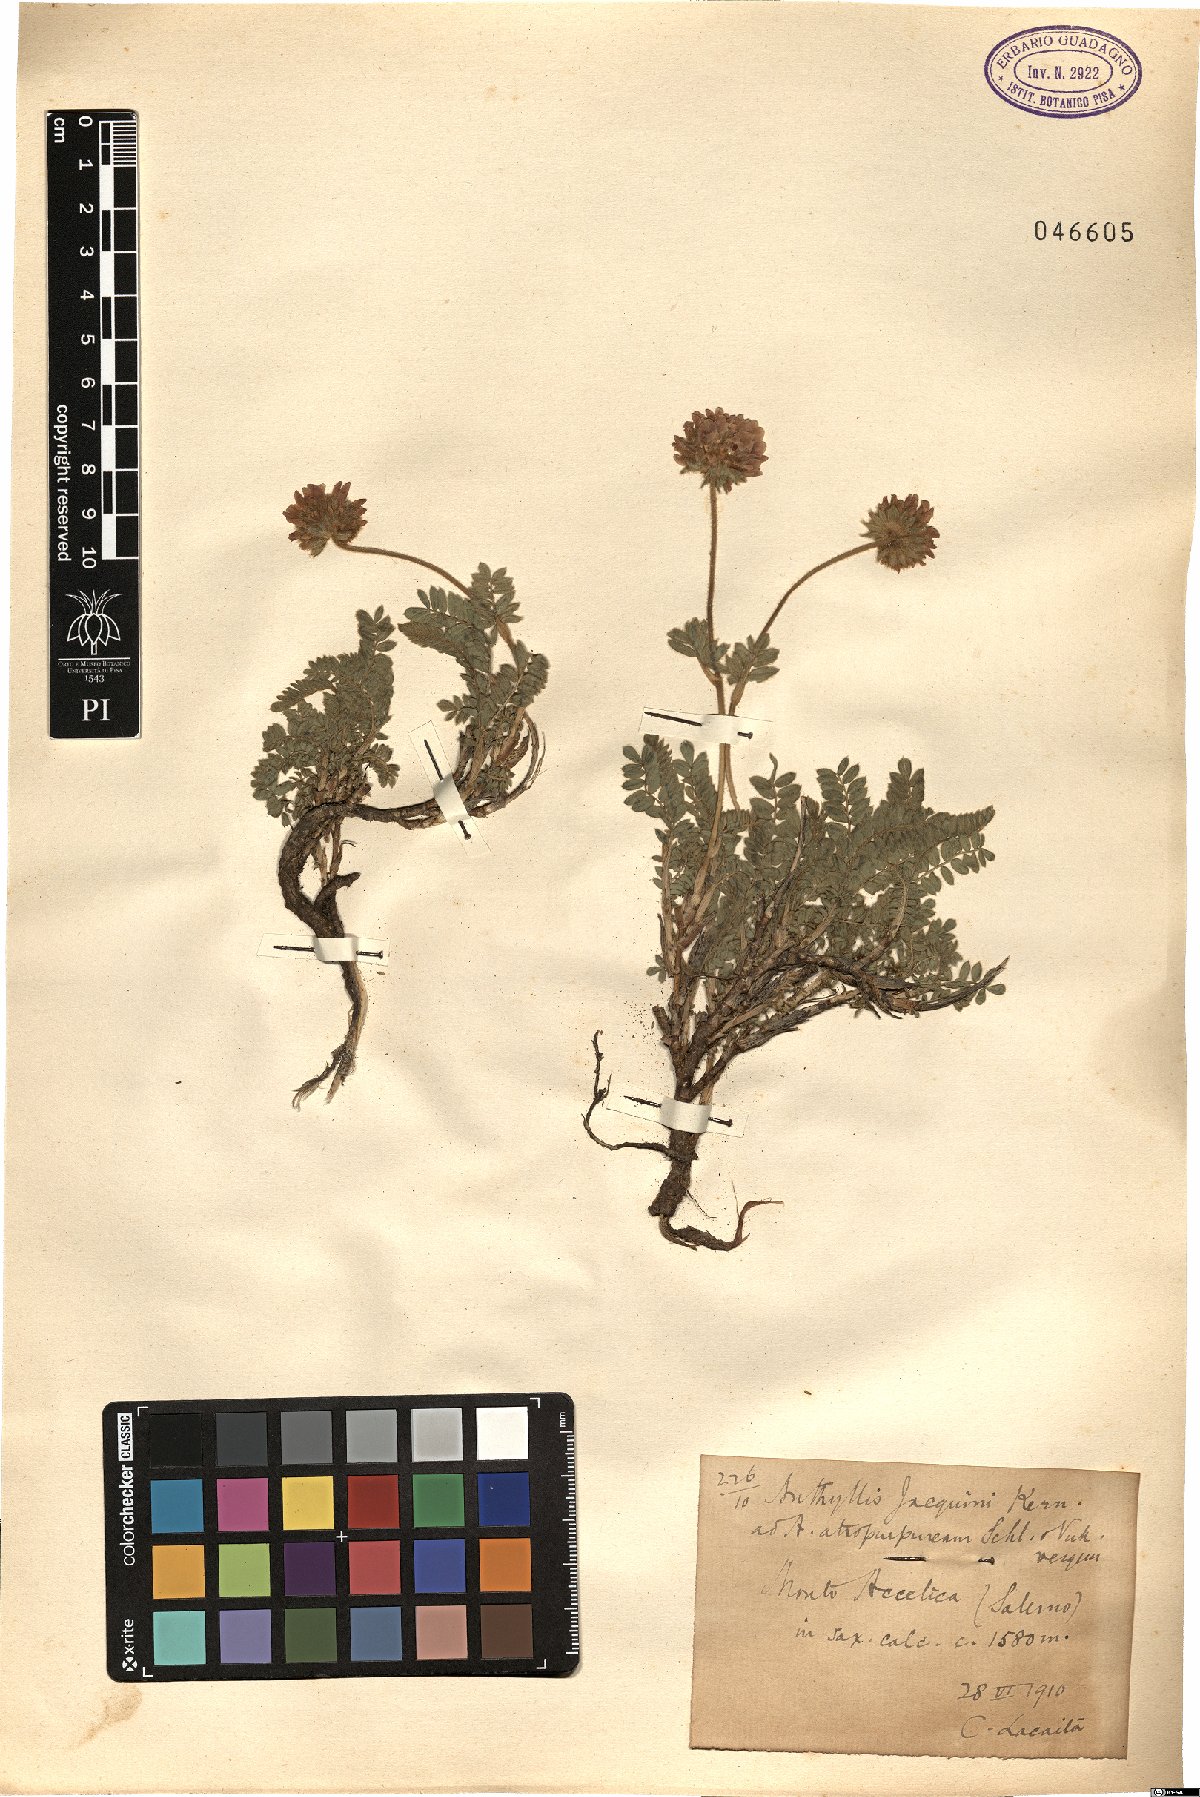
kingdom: Plantae
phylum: Tracheophyta
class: Magnoliopsida
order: Fabales
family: Fabaceae
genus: Anthyllis
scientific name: Anthyllis montana
